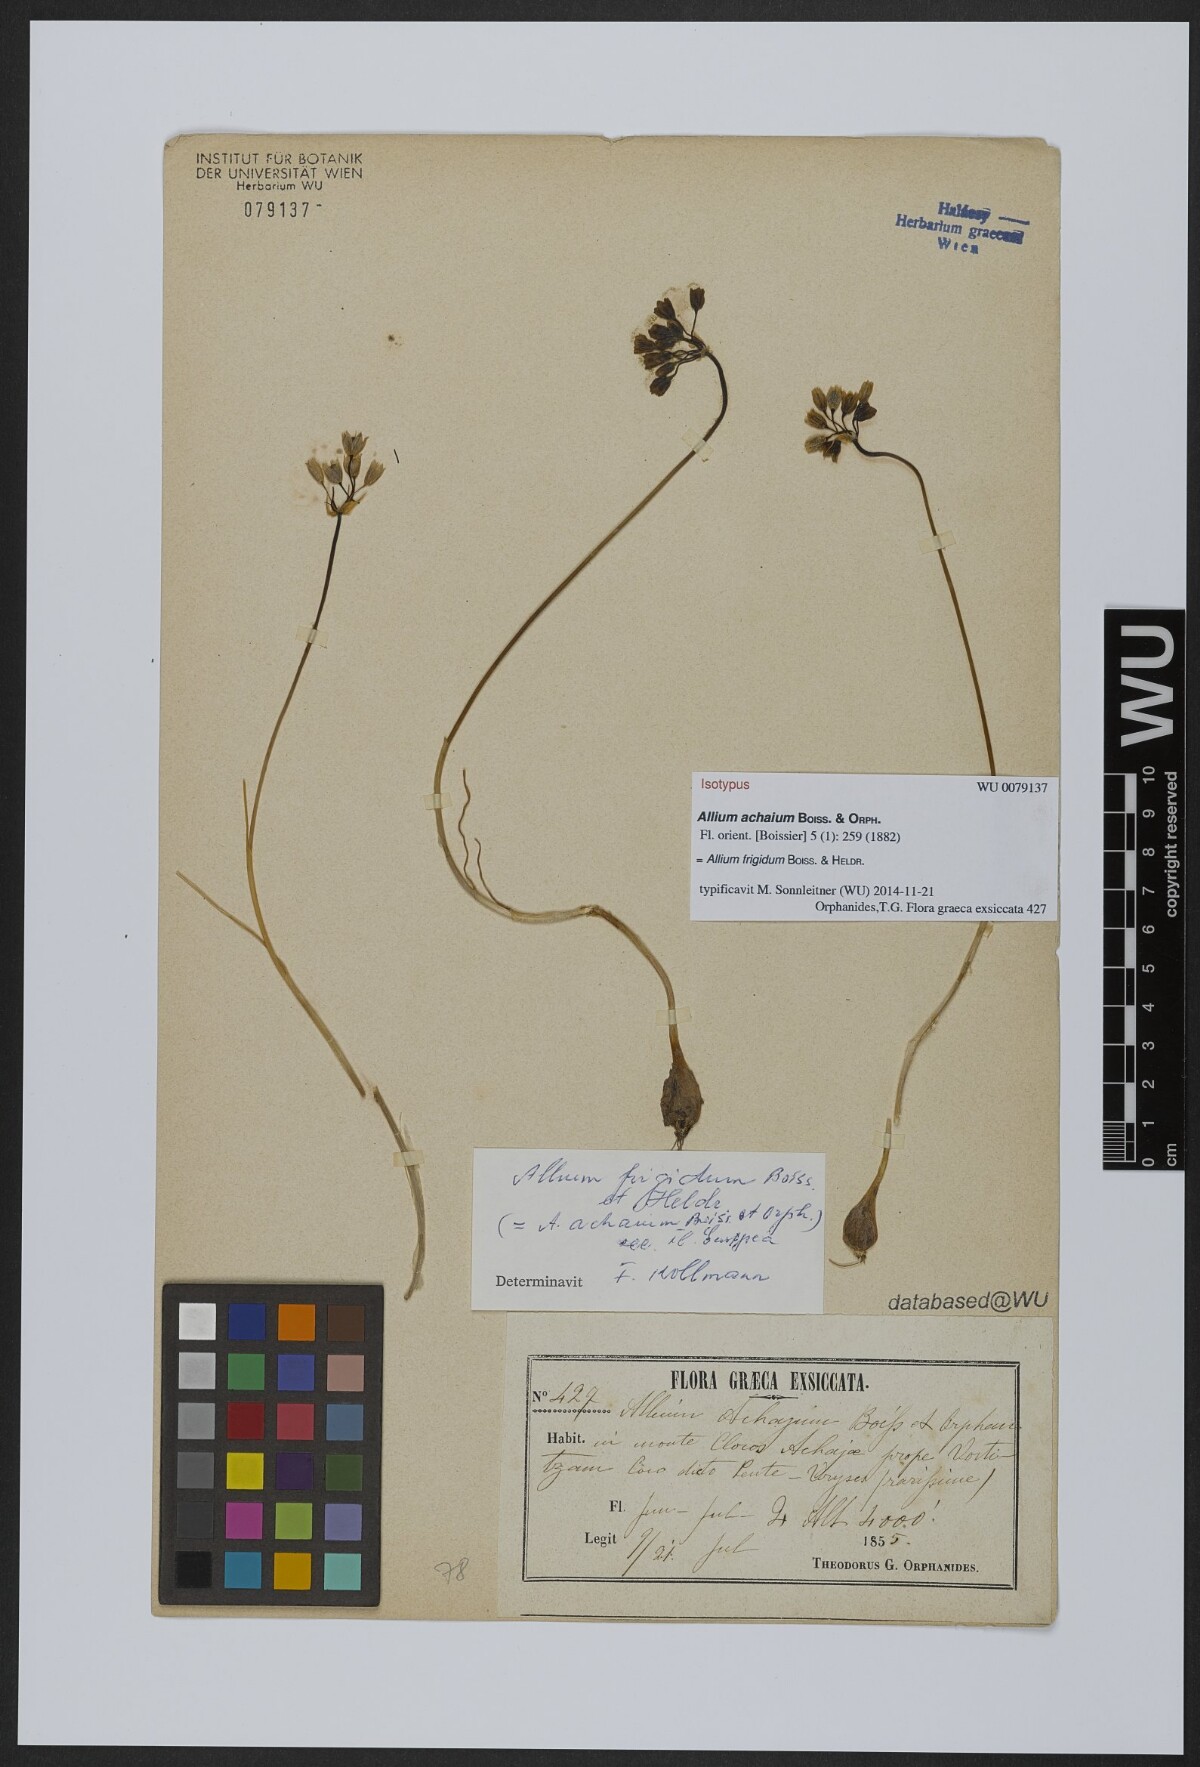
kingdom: Plantae
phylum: Tracheophyta
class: Liliopsida
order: Asparagales
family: Amaryllidaceae
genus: Allium
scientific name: Allium frigidum
